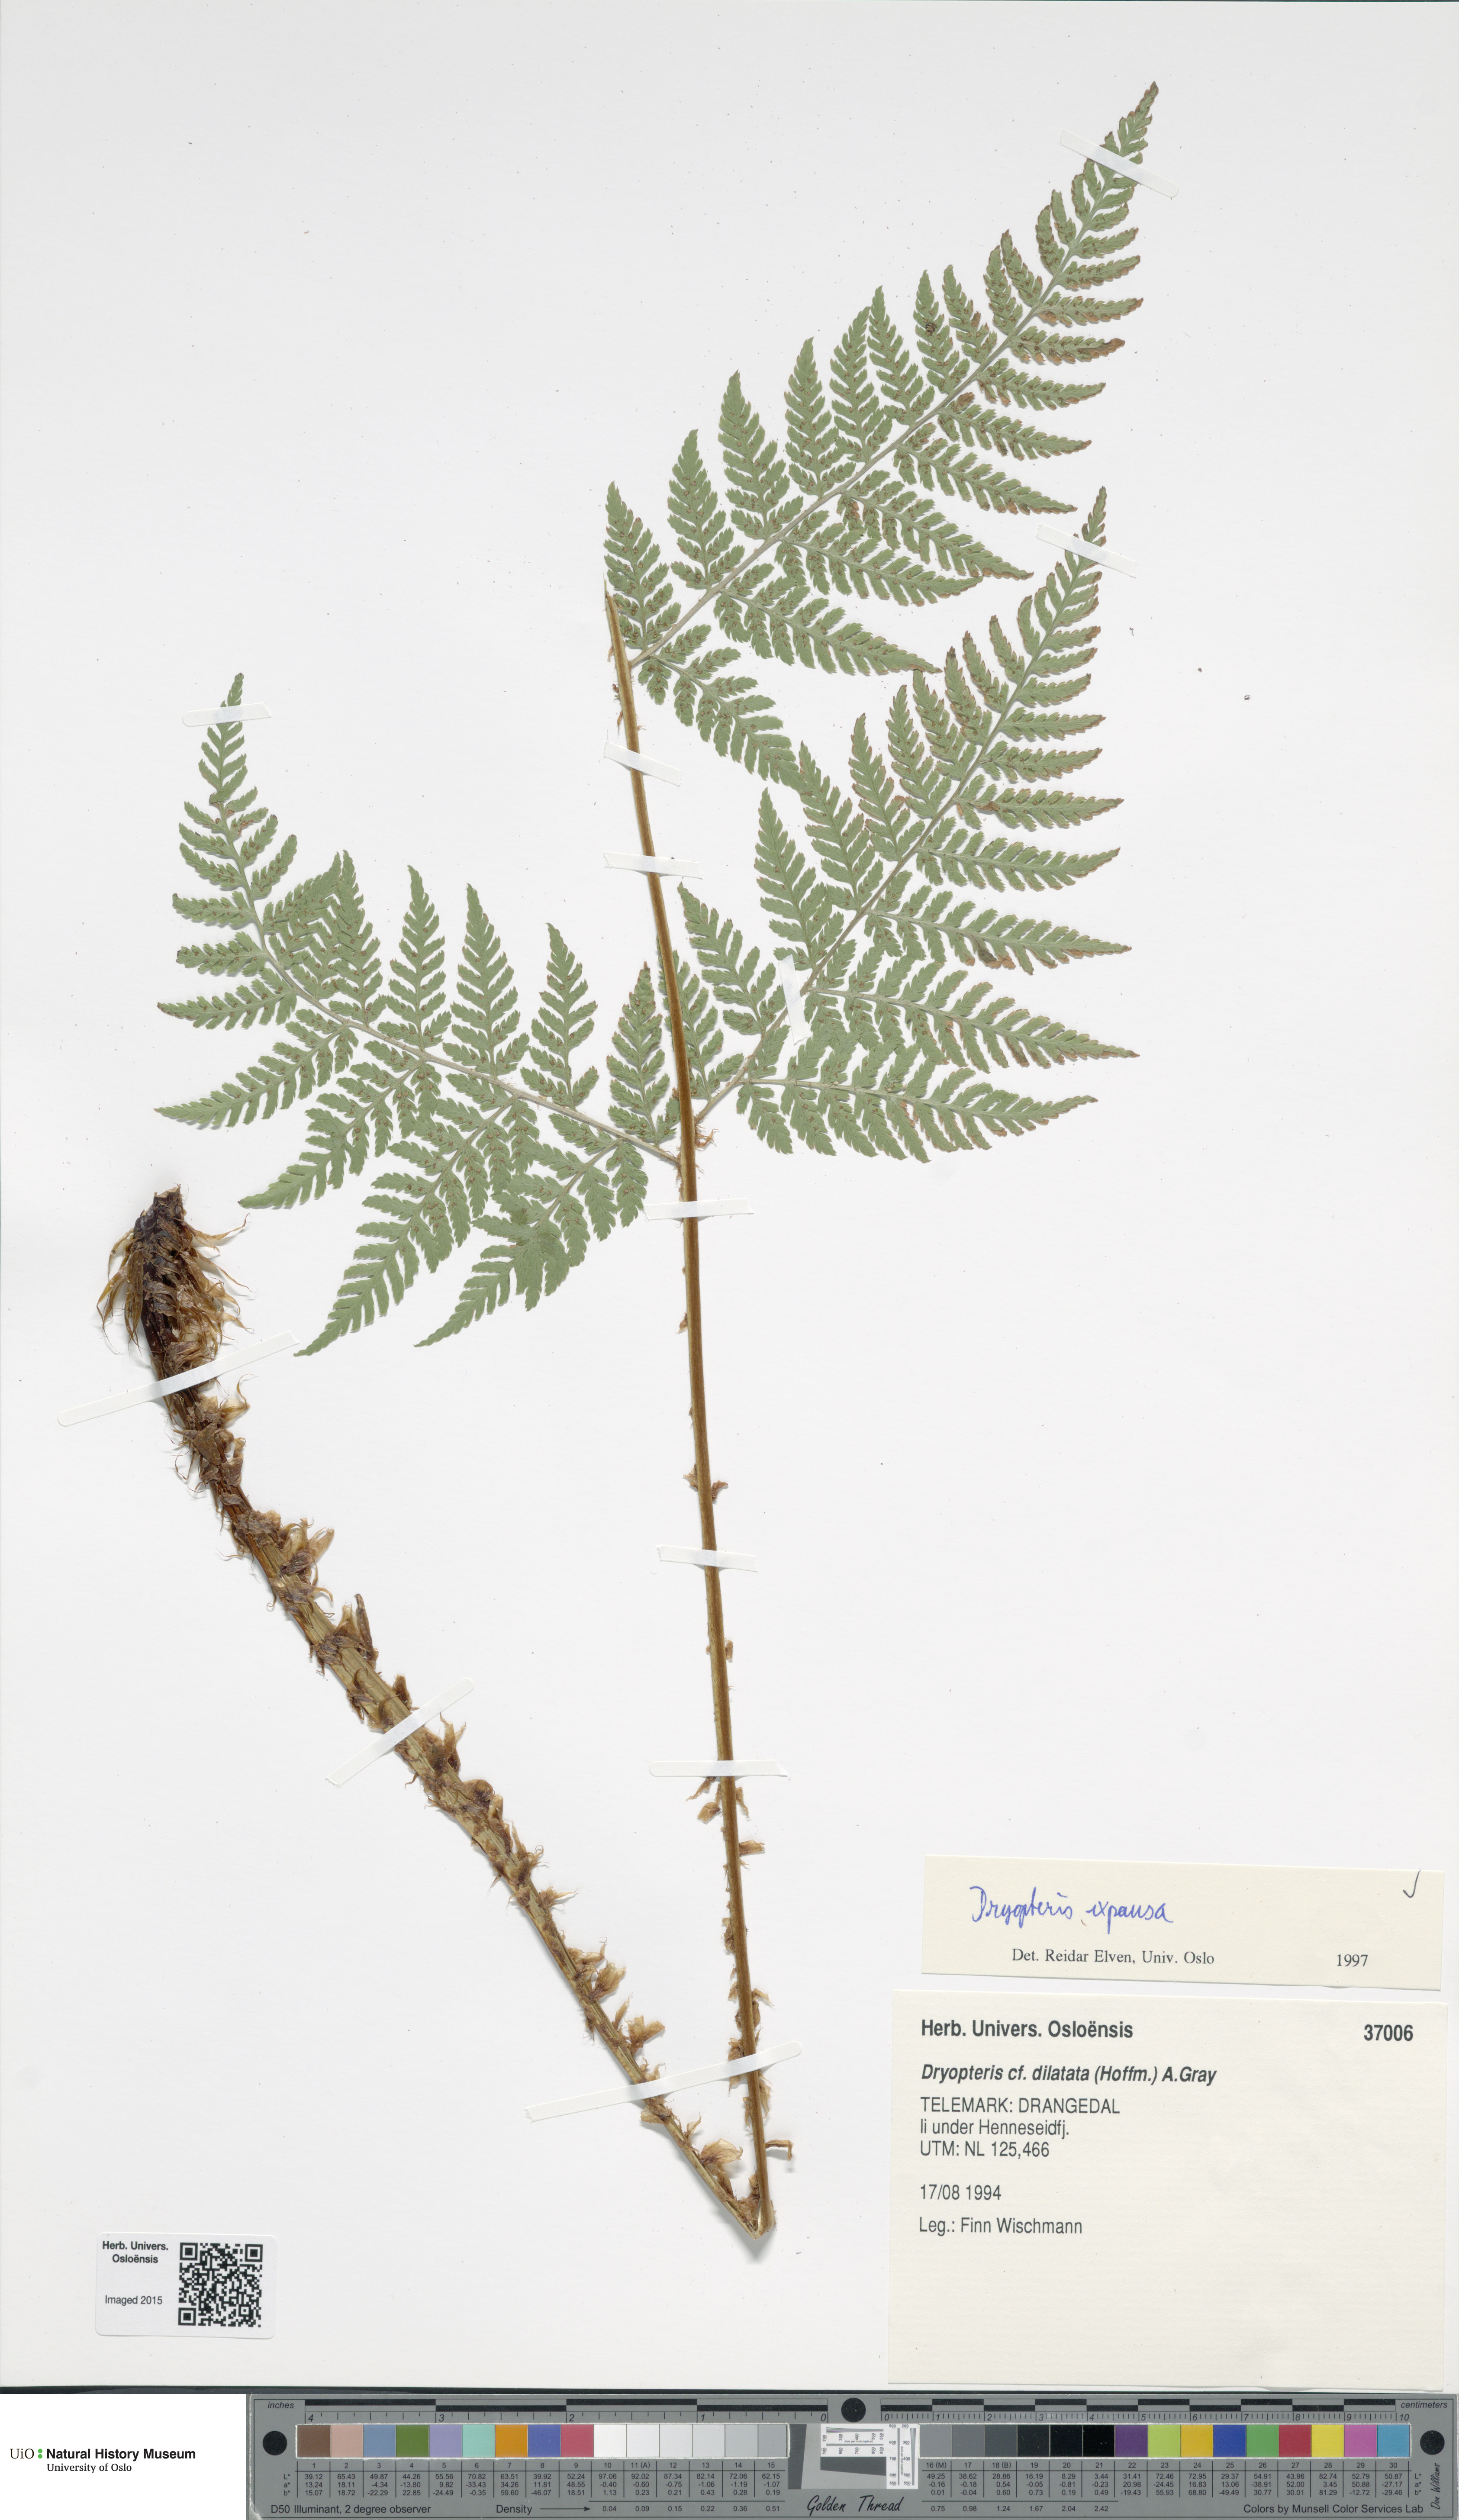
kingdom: Plantae
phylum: Tracheophyta
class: Polypodiopsida
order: Polypodiales
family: Dryopteridaceae
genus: Dryopteris
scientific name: Dryopteris expansa
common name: Northern buckler fern
